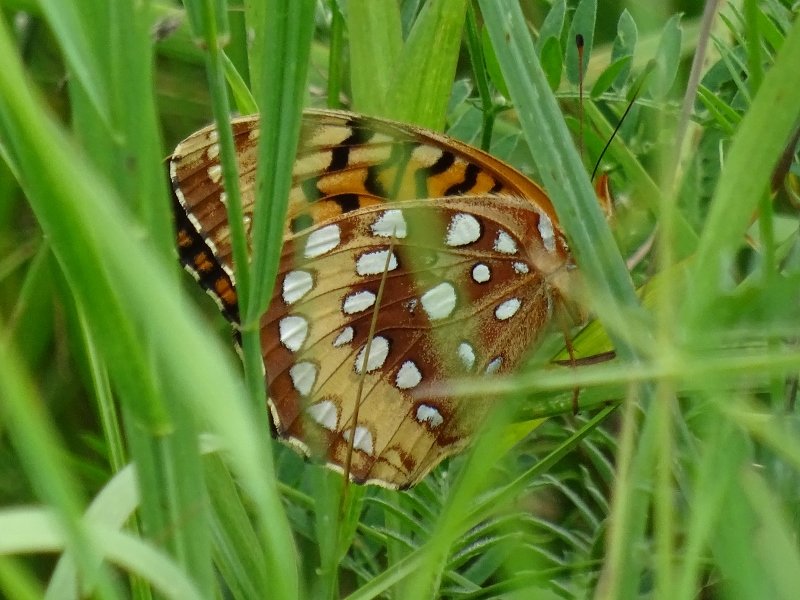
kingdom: Animalia
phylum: Arthropoda
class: Insecta
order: Lepidoptera
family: Nymphalidae
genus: Speyeria
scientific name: Speyeria cybele
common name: Great Spangled Fritillary
